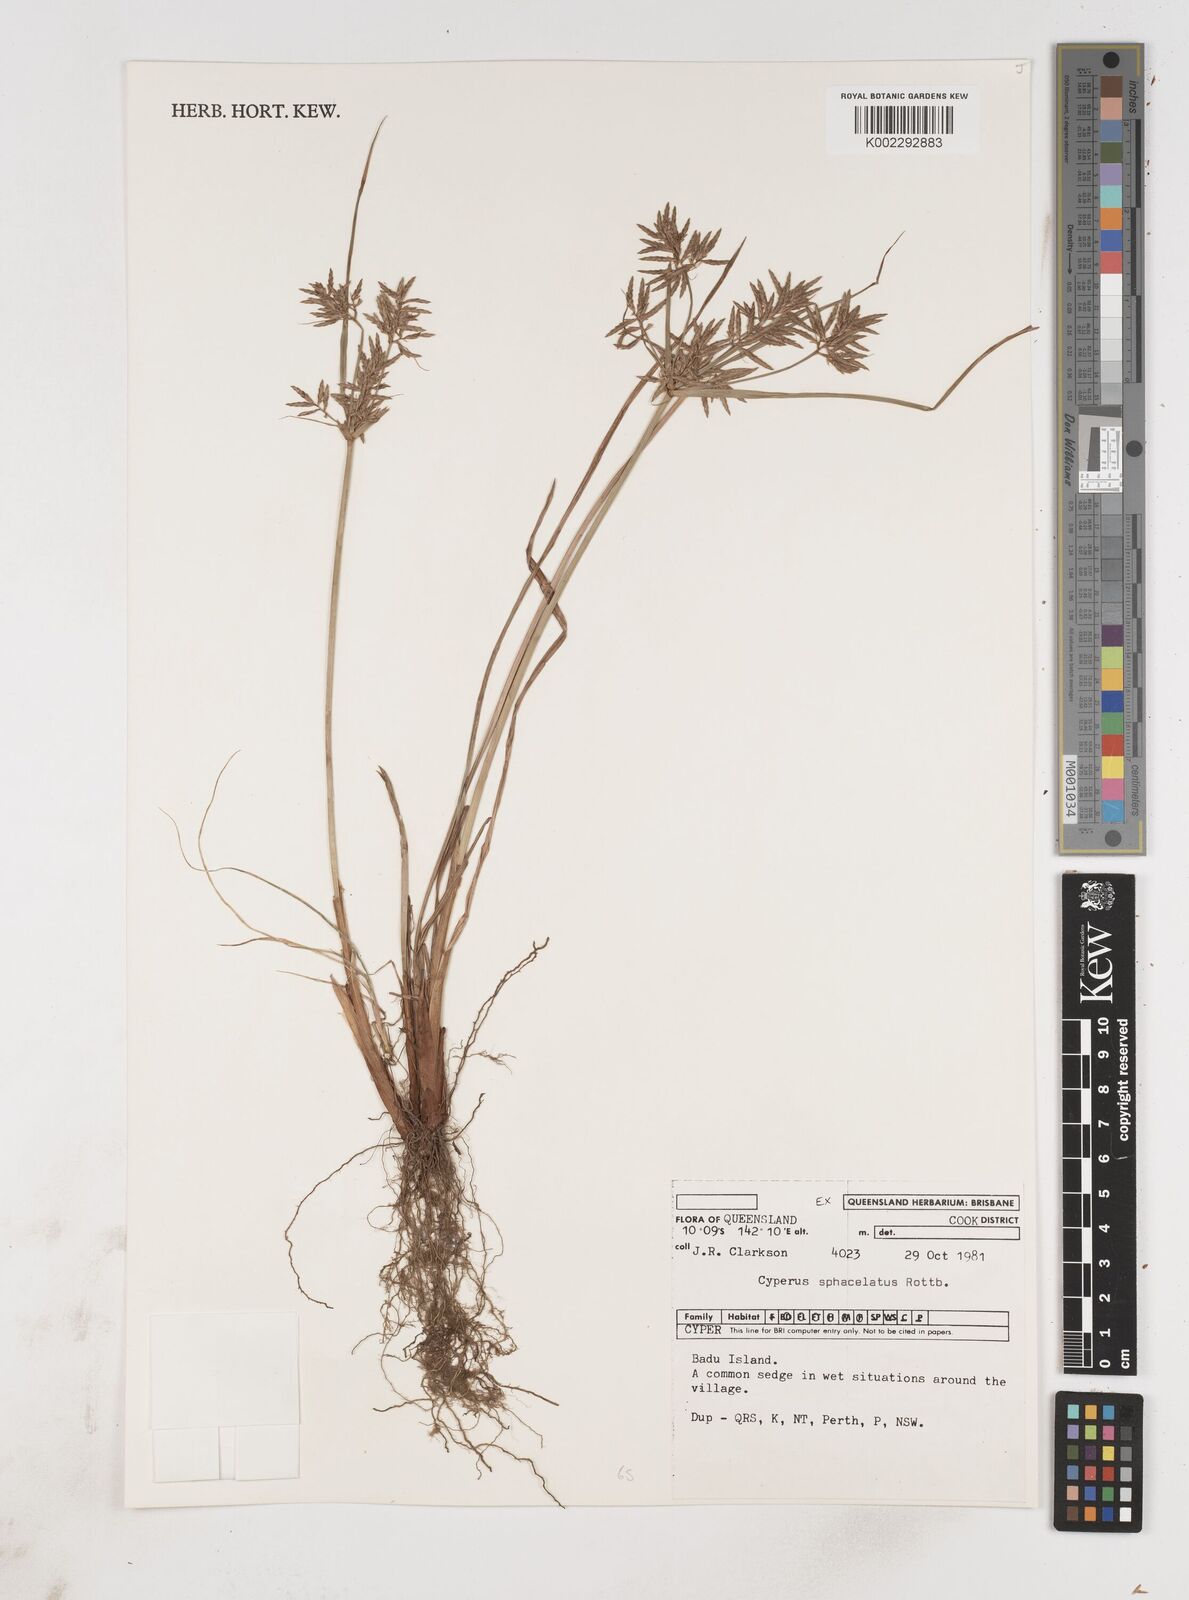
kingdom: Plantae
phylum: Tracheophyta
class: Liliopsida
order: Poales
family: Cyperaceae
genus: Cyperus
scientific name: Cyperus sphacelatus
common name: Roadside flatsedge
